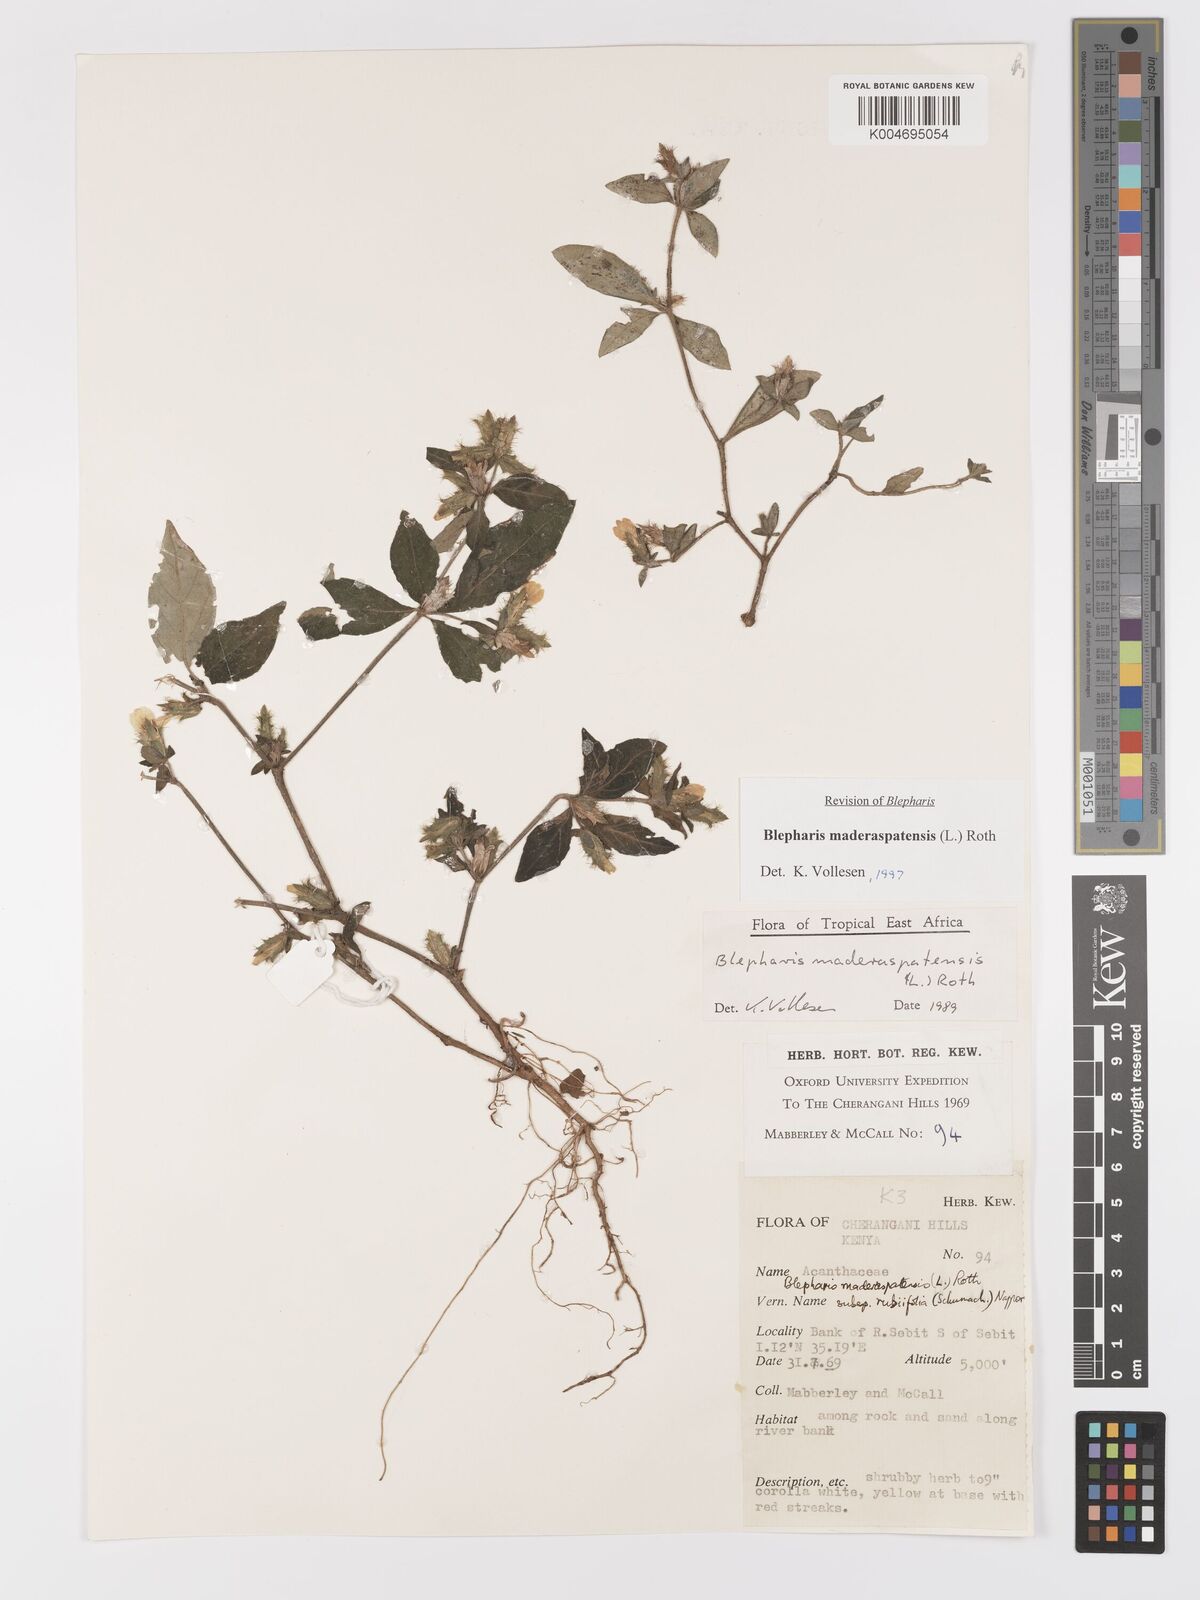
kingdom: Plantae
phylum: Tracheophyta
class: Magnoliopsida
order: Lamiales
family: Acanthaceae
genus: Blepharis
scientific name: Blepharis maderaspatensis
